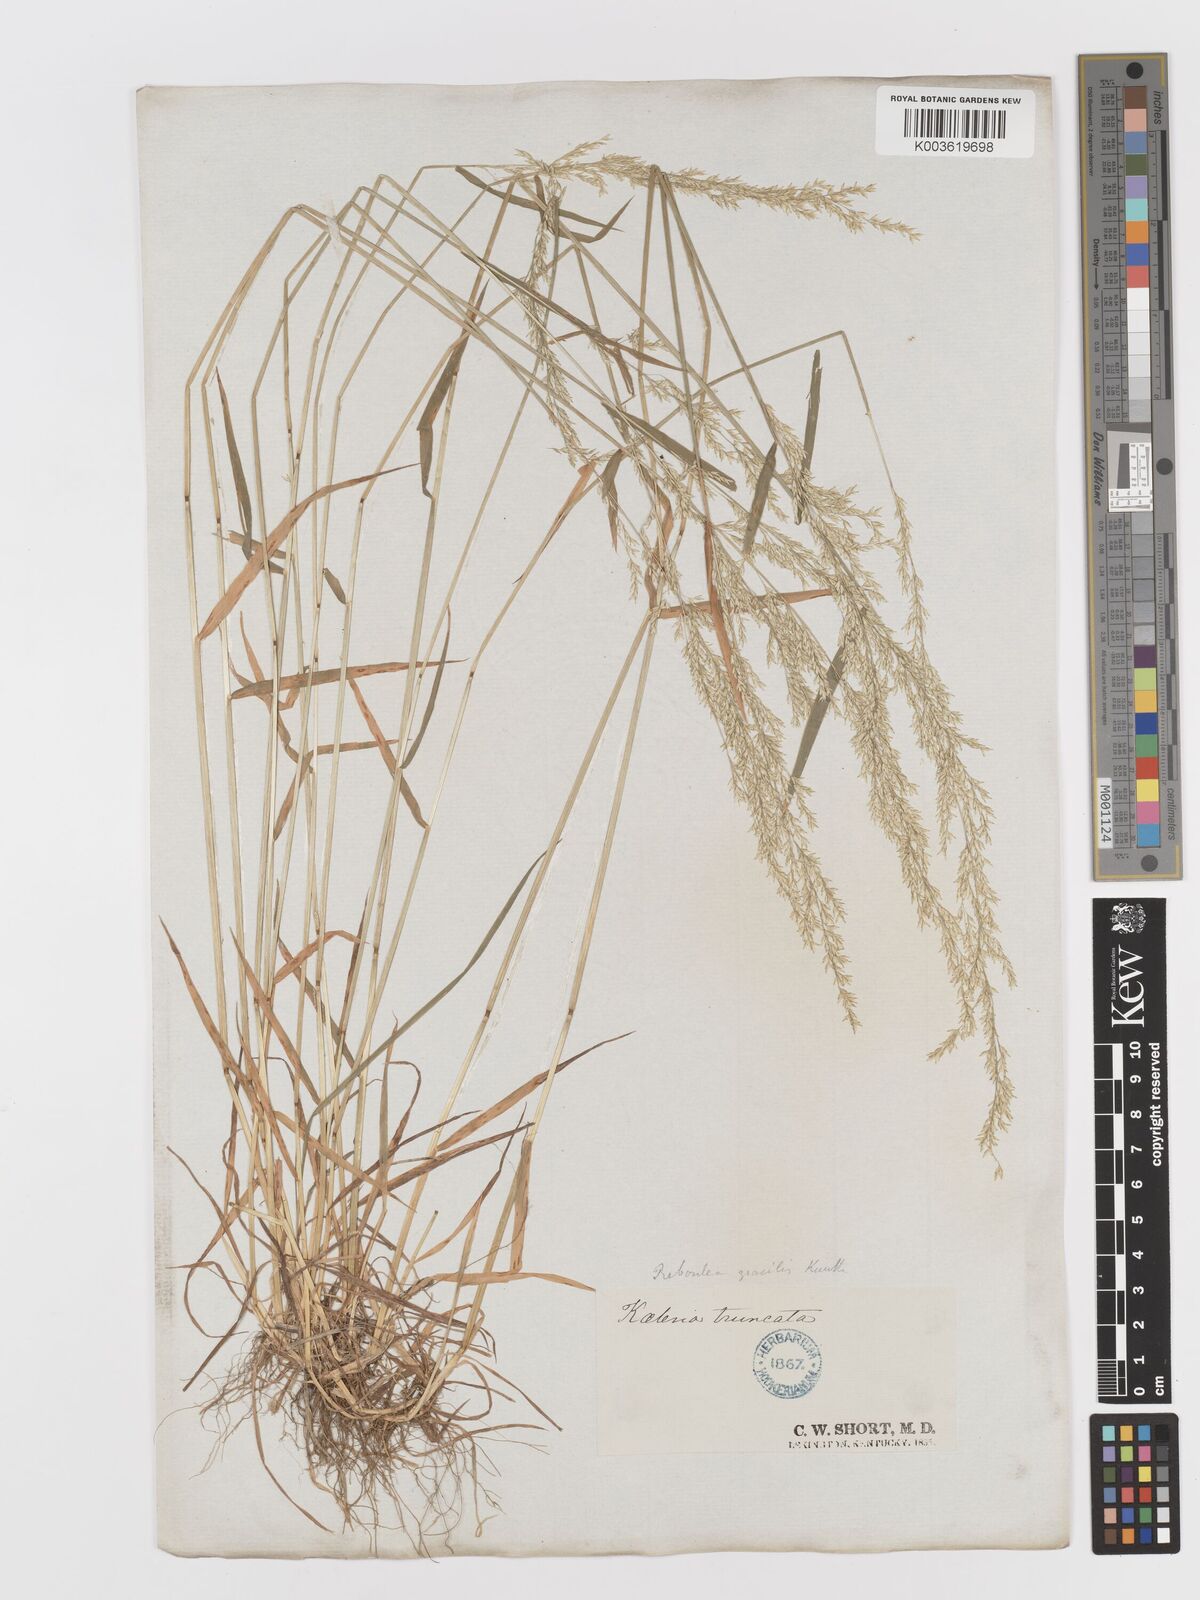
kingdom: Plantae
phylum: Tracheophyta
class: Liliopsida
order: Poales
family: Poaceae
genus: Sphenopholis
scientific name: Sphenopholis obtusata
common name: Prairie grass
